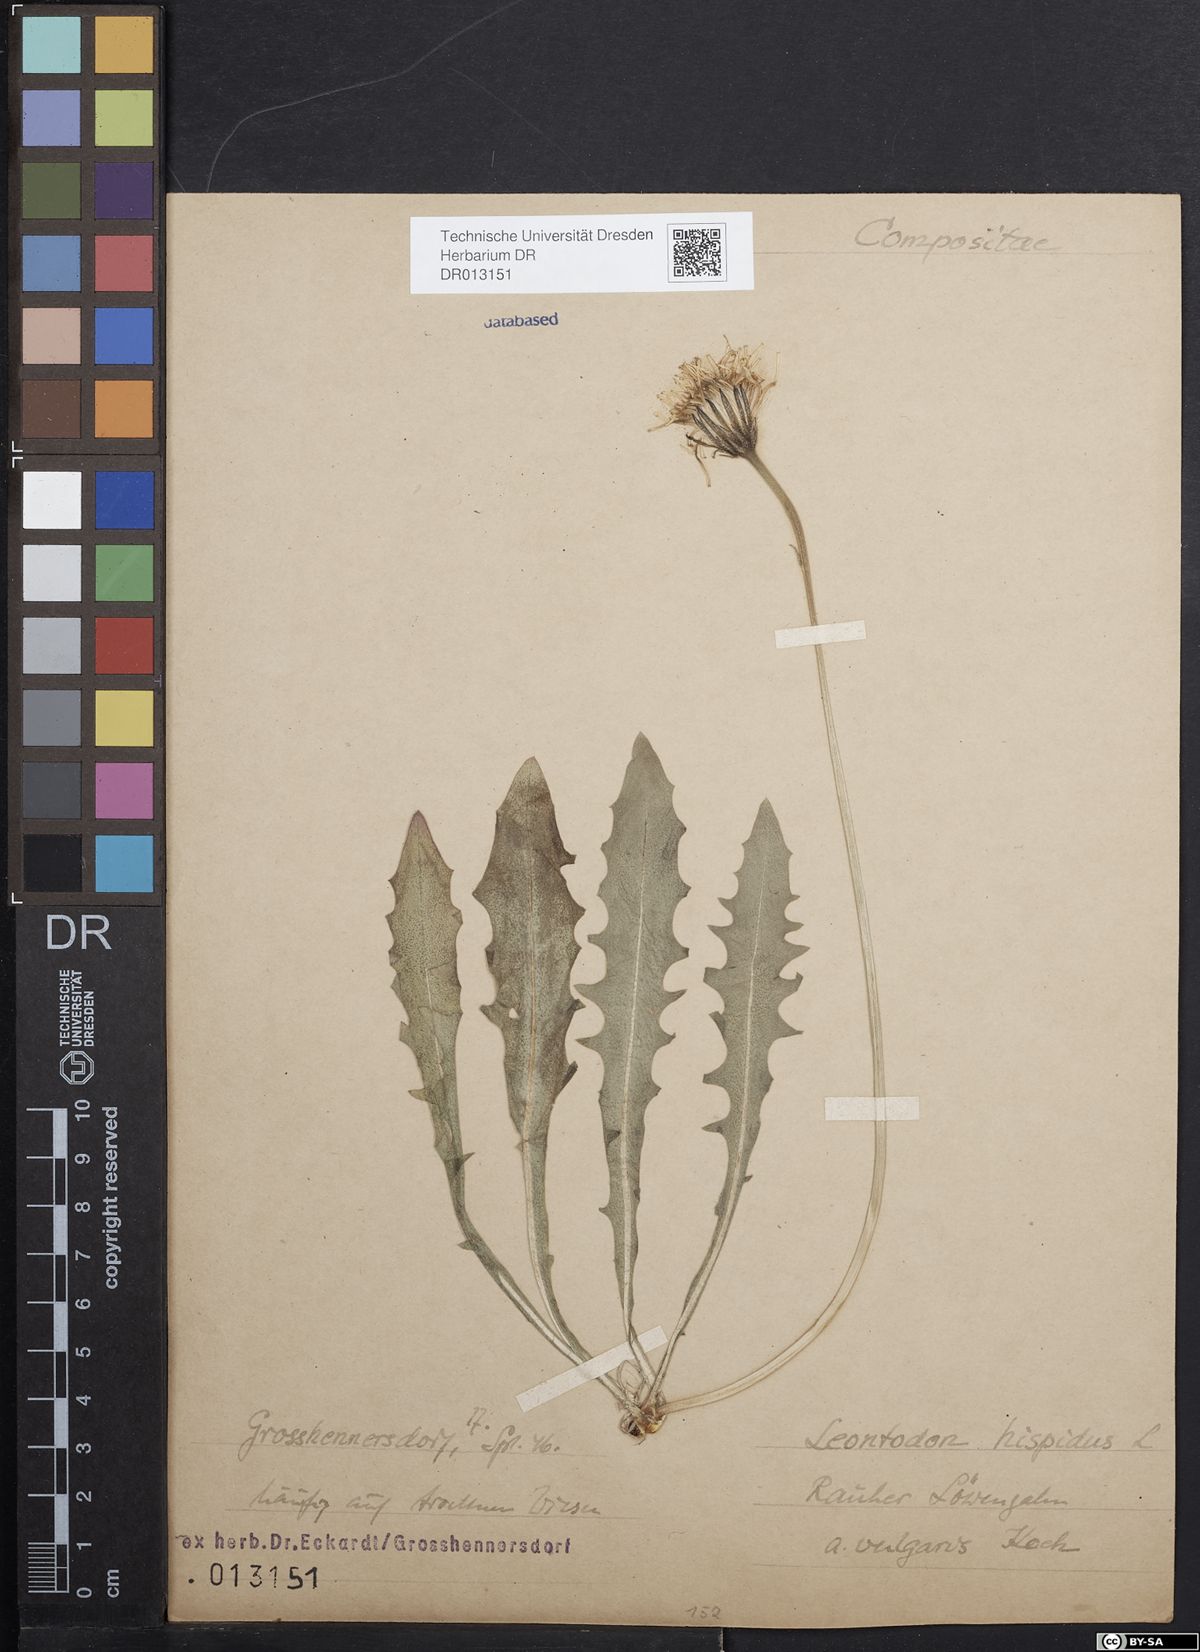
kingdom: Plantae
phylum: Tracheophyta
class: Magnoliopsida
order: Asterales
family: Asteraceae
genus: Leontodon
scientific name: Leontodon hispidus
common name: Rough hawkbit
